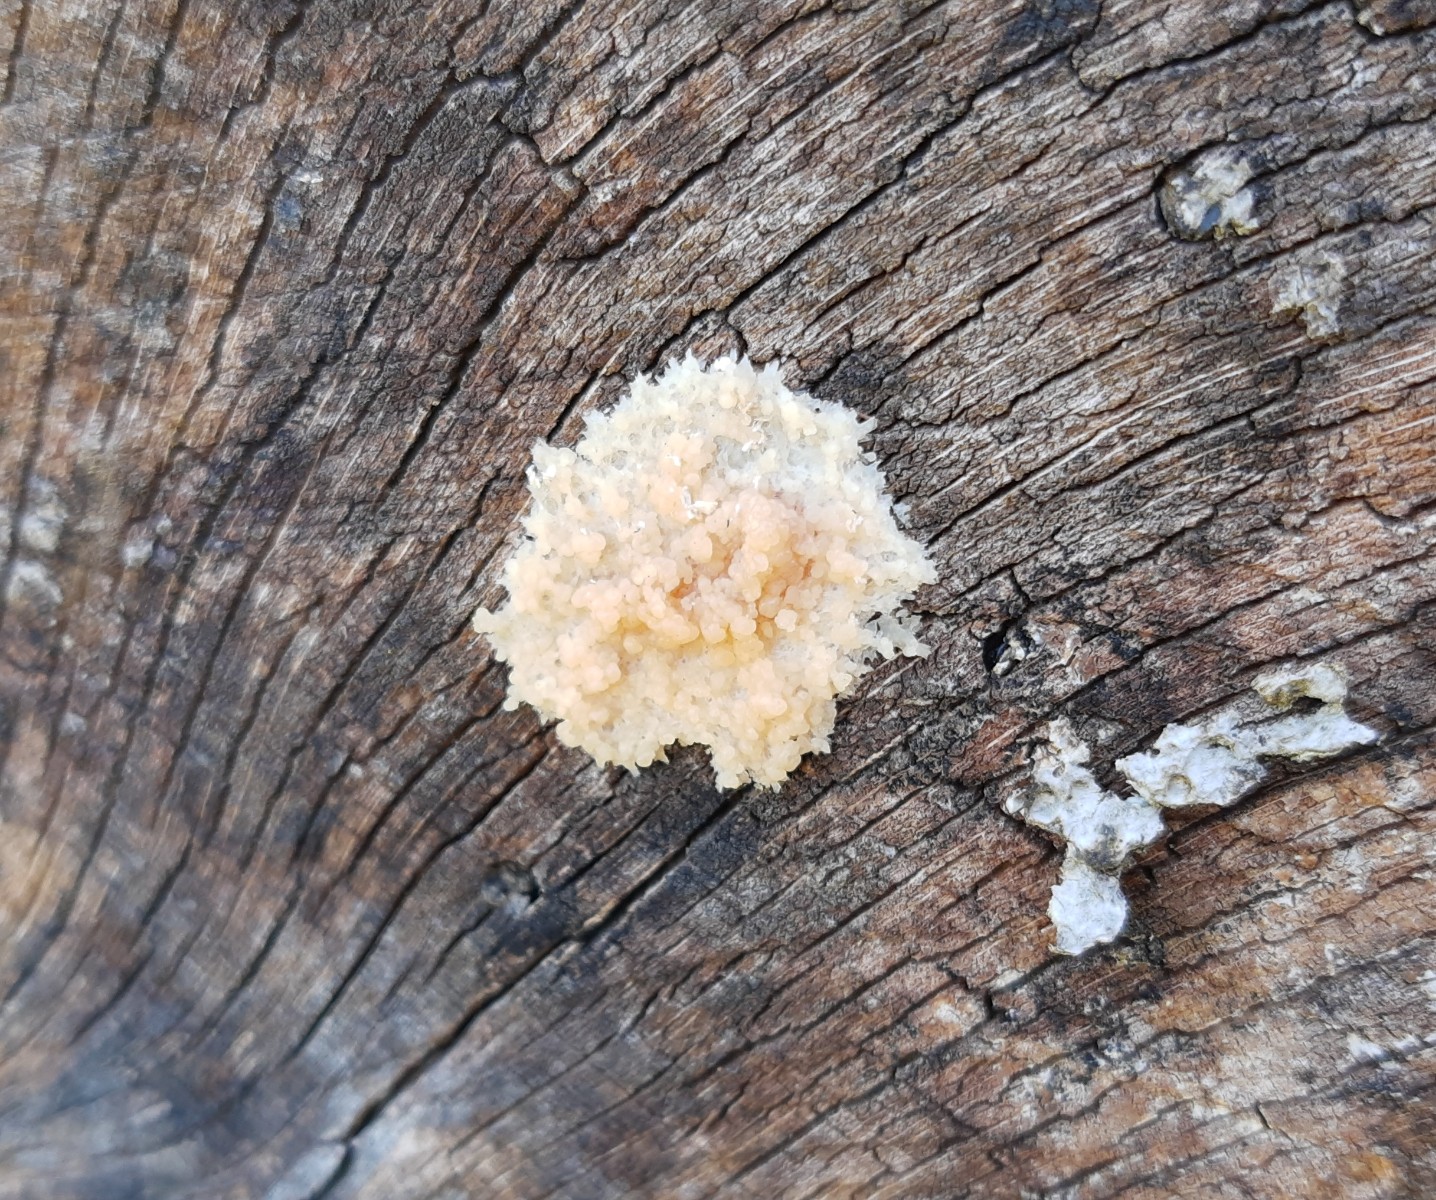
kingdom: Protozoa
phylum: Mycetozoa
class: Myxomycetes
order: Cribrariales
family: Tubiferaceae
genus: Reticularia
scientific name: Reticularia lycoperdon
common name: skinnende støvpude
